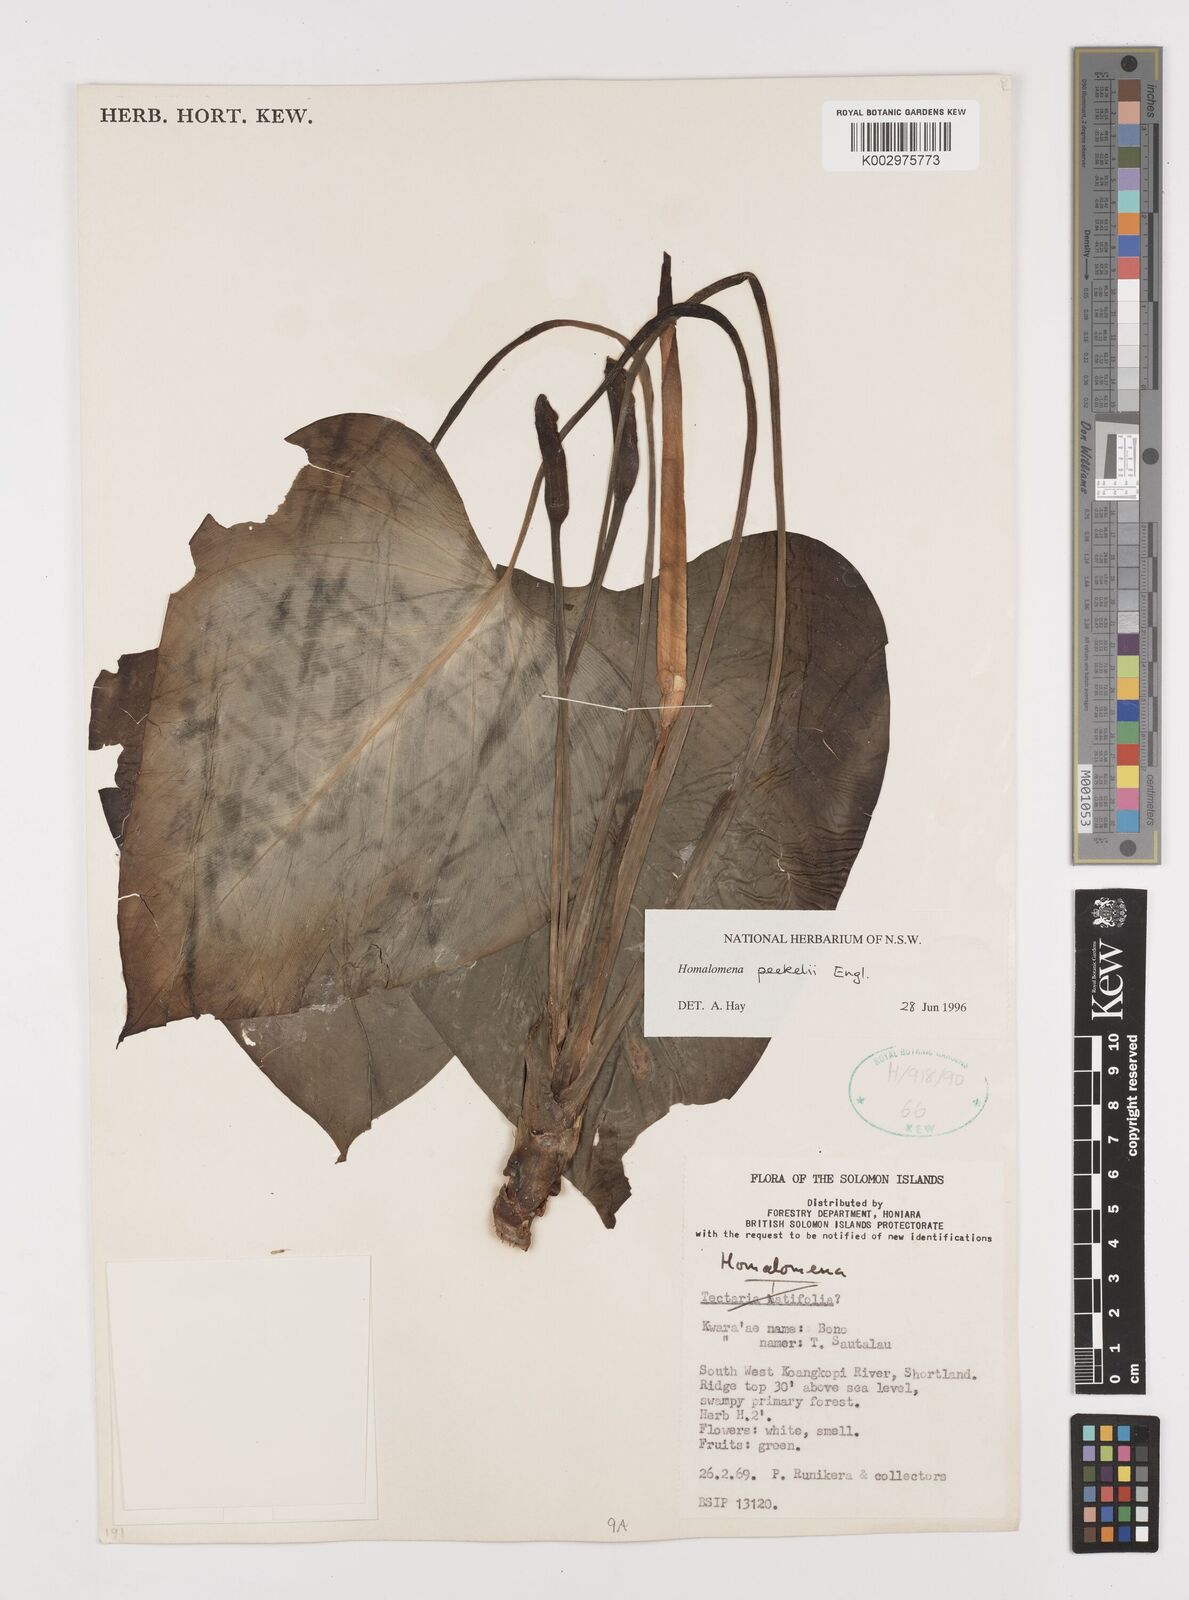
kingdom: Plantae
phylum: Tracheophyta
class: Liliopsida
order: Alismatales
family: Araceae
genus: Homalomena
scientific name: Homalomena peekelii
